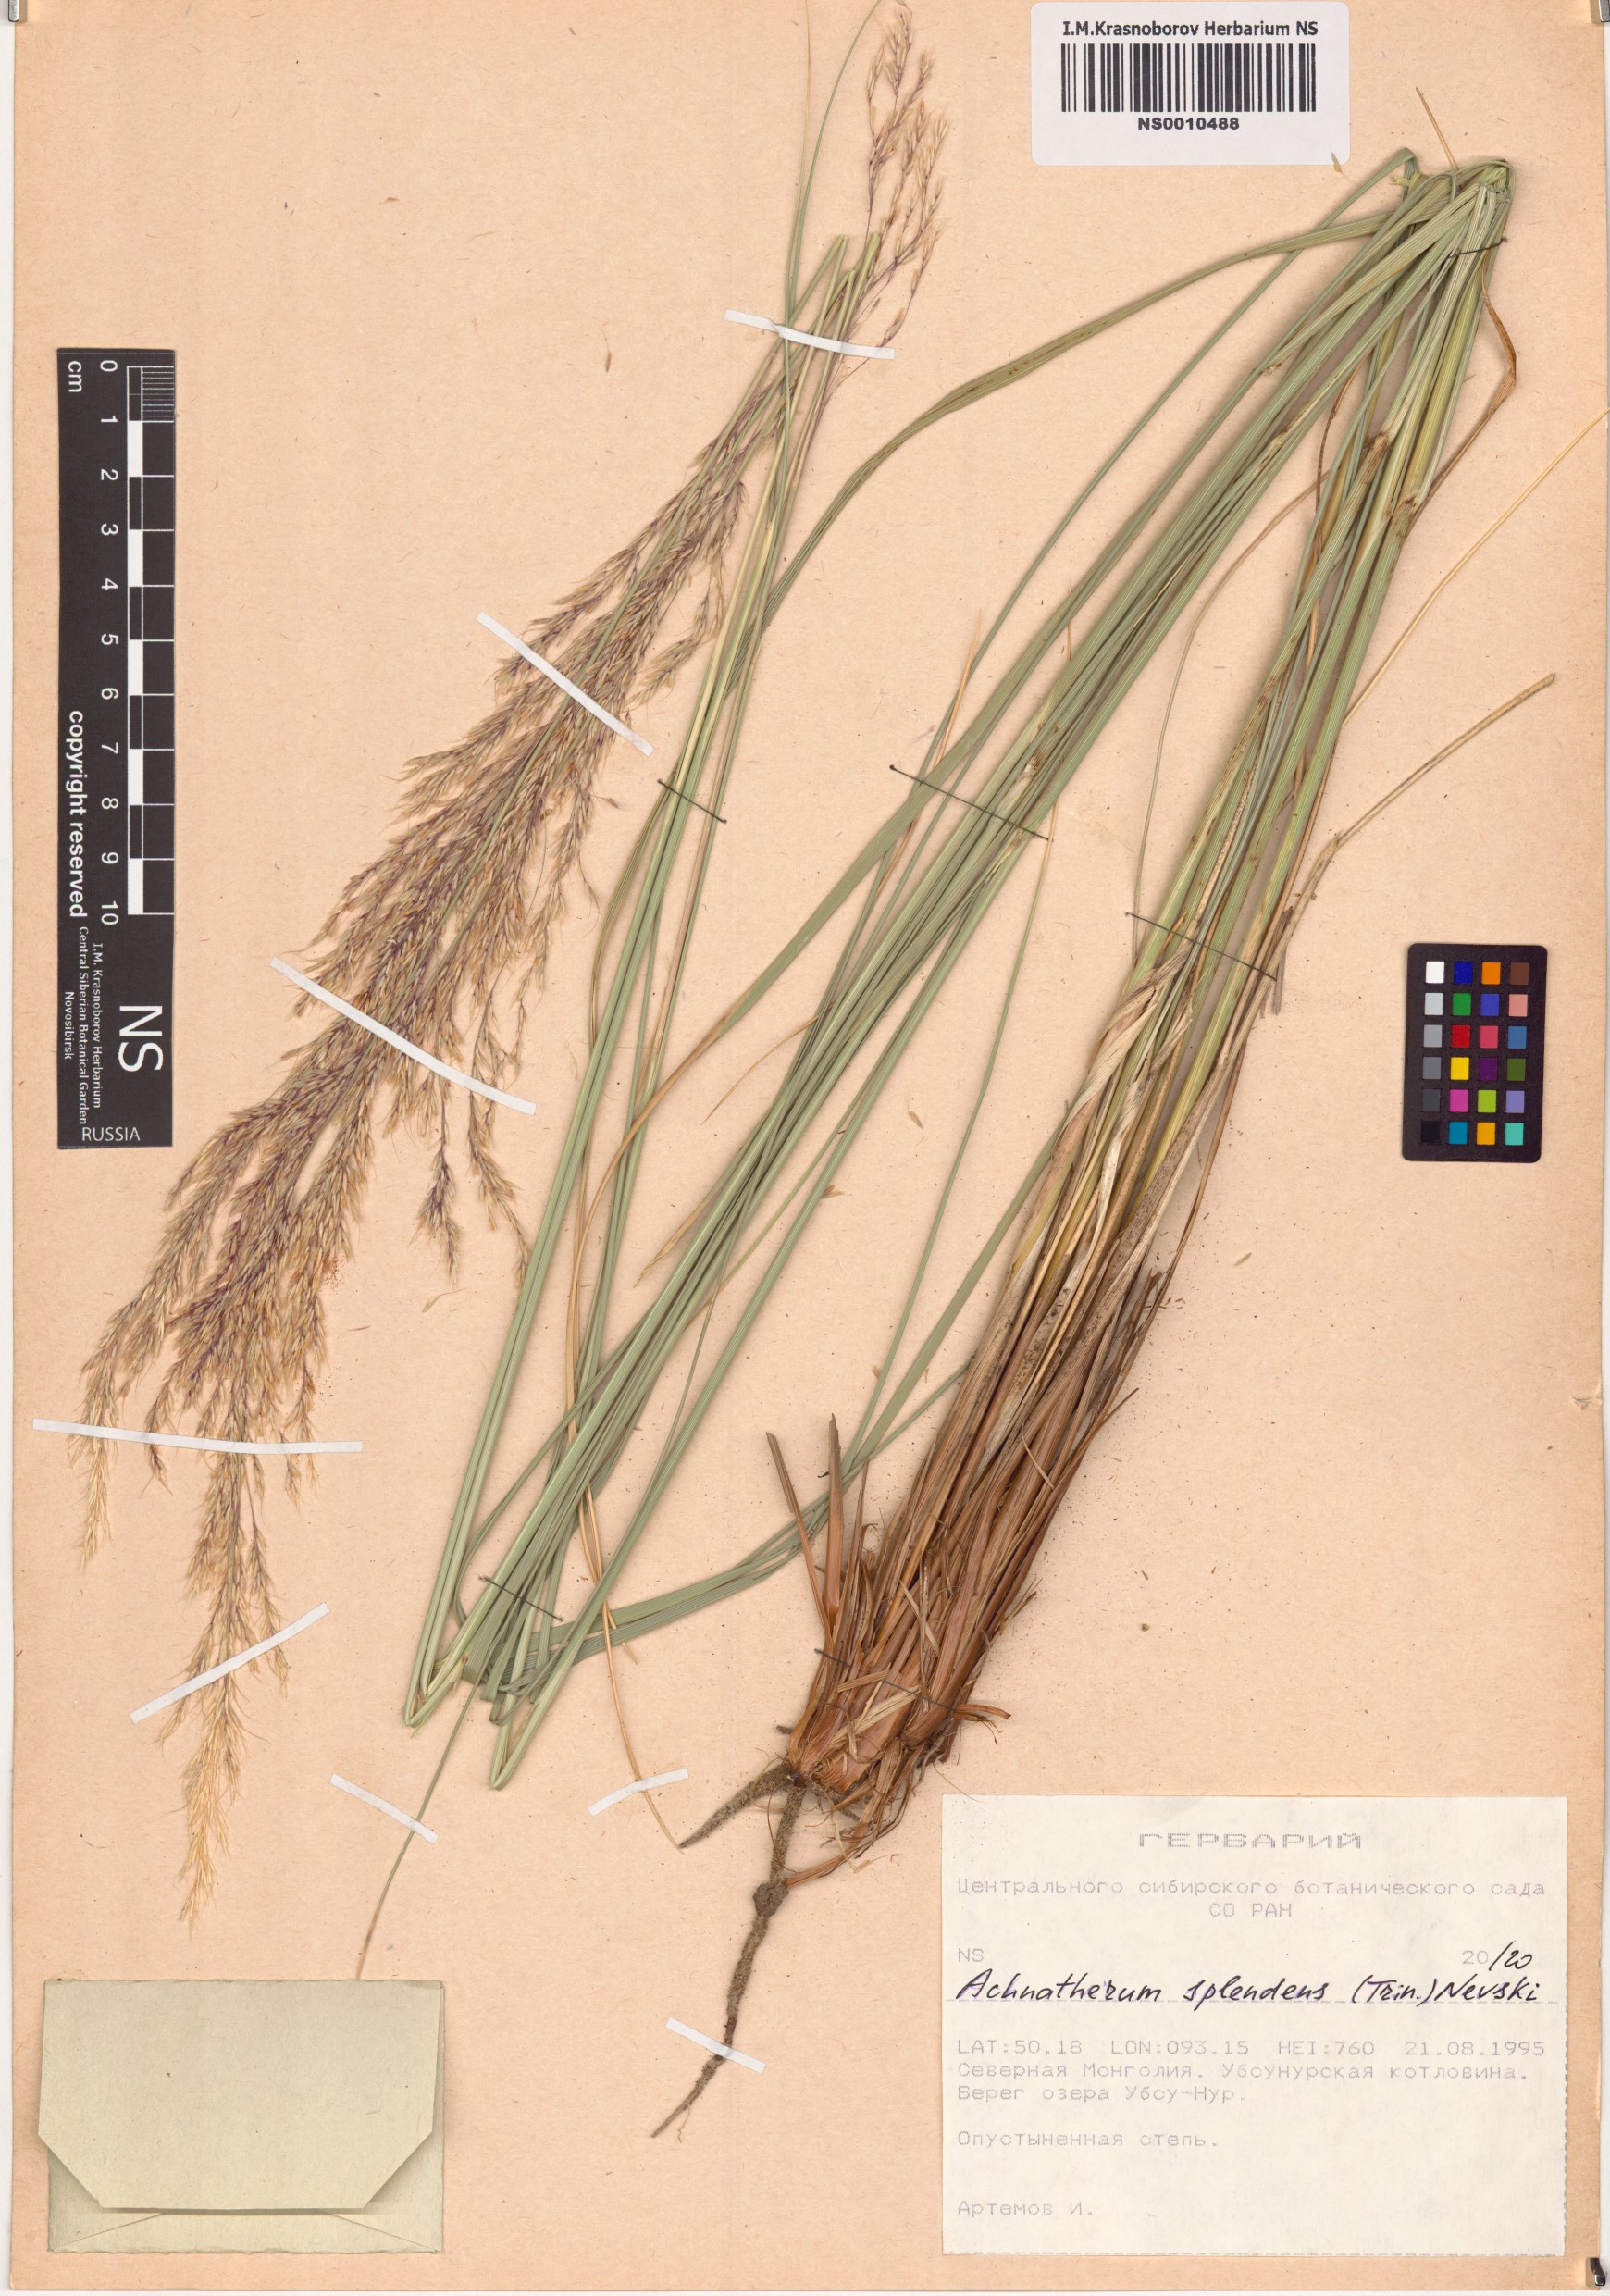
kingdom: Plantae
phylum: Tracheophyta
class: Liliopsida
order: Poales
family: Poaceae
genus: Neotrinia
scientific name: Neotrinia splendens
